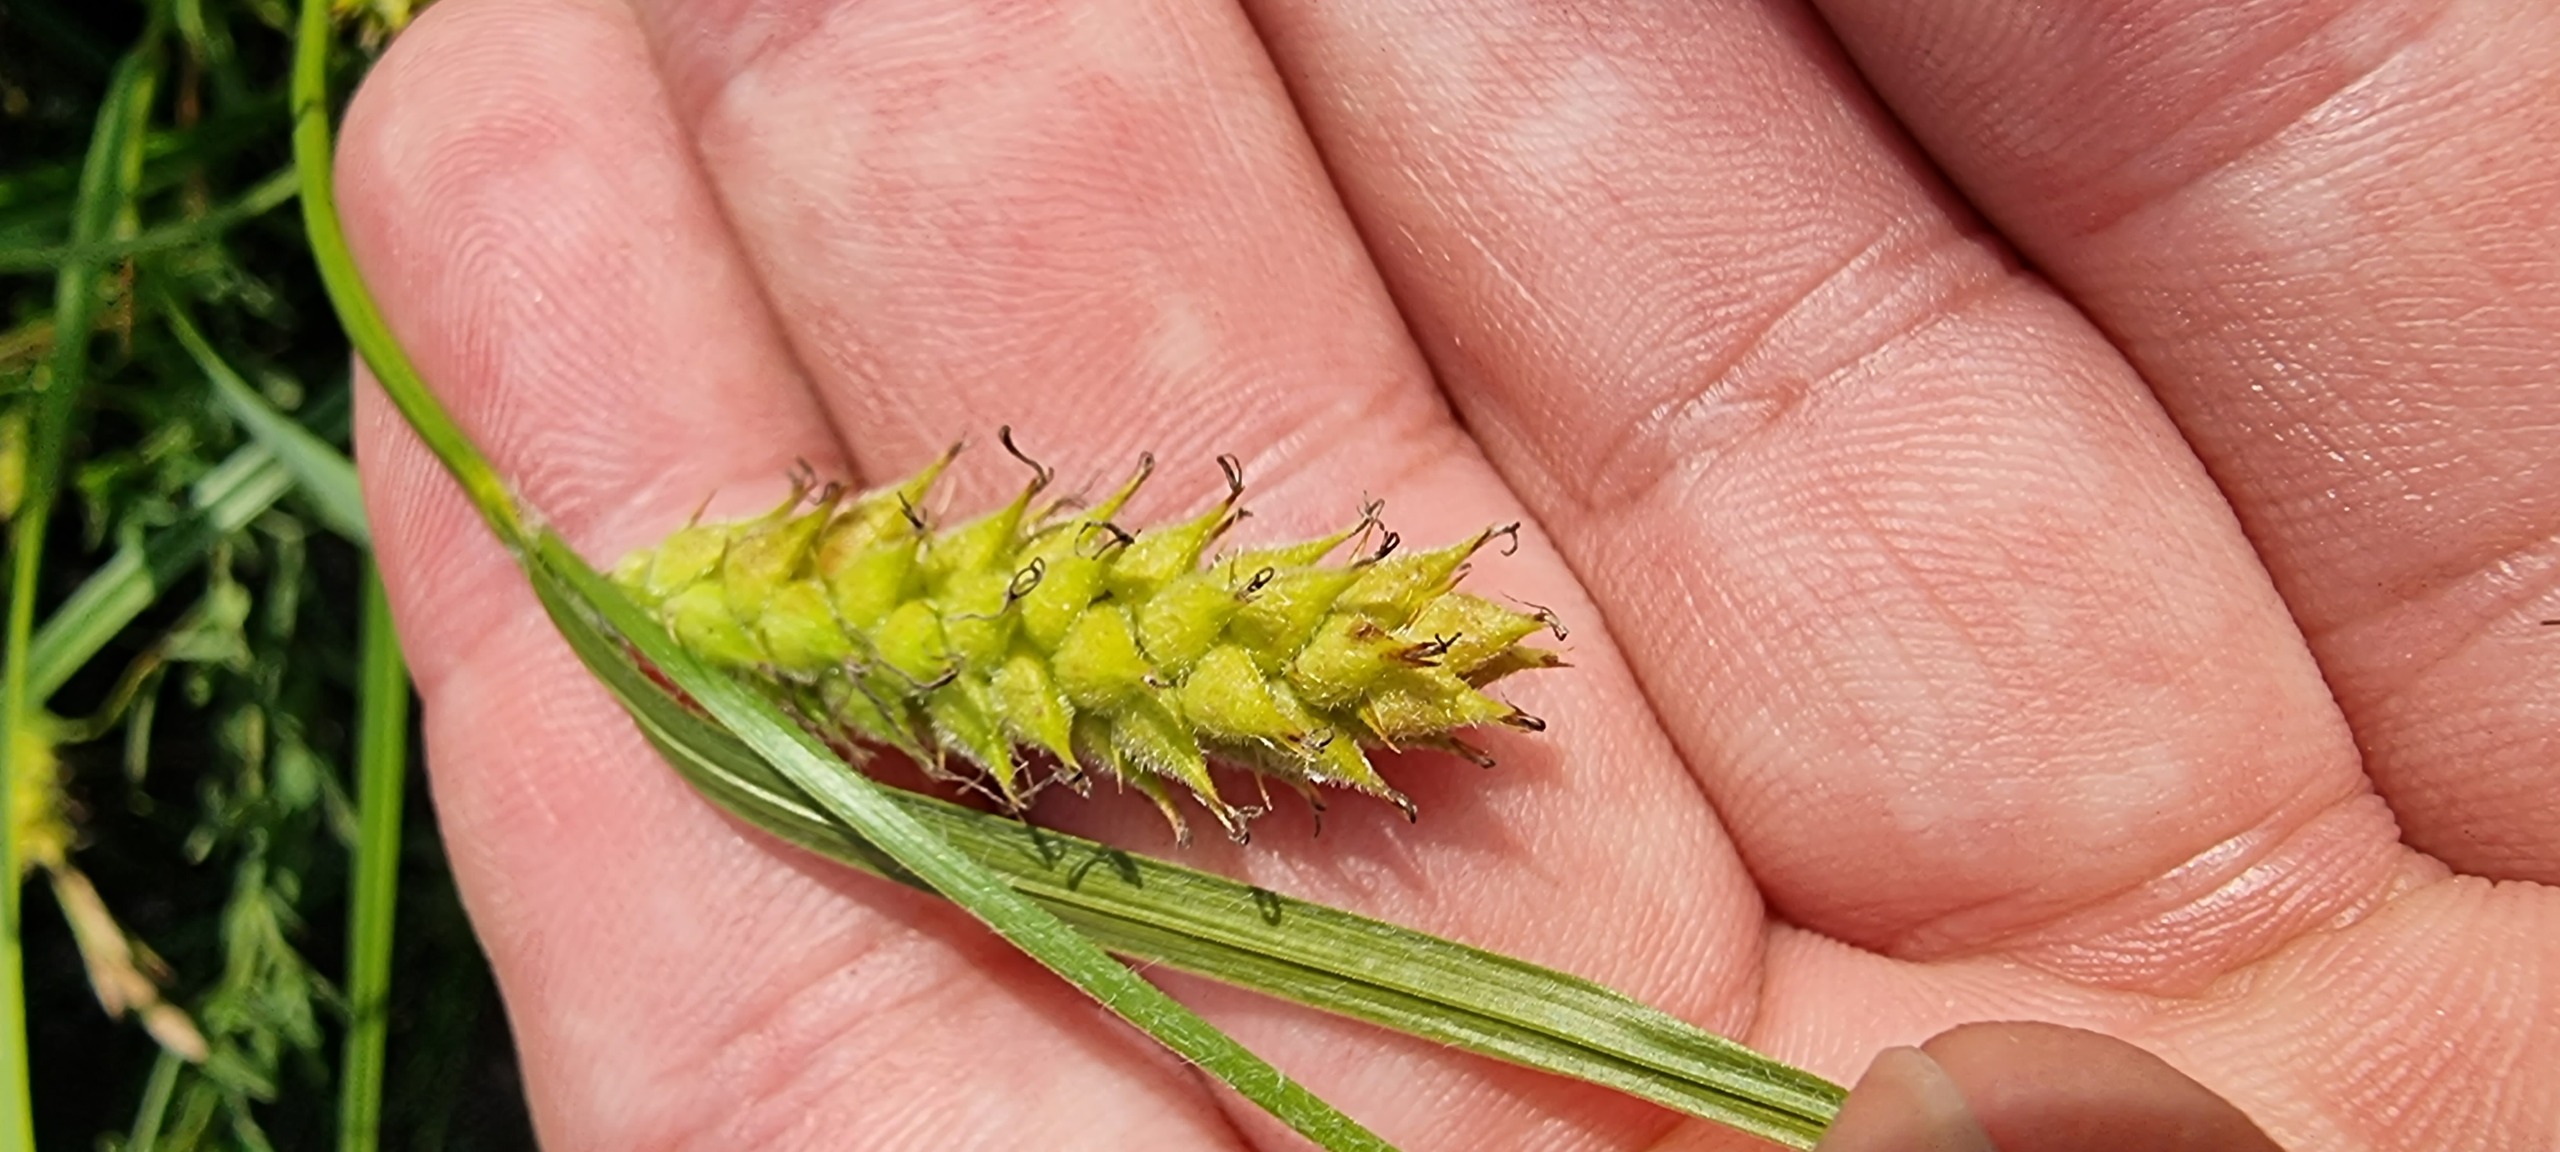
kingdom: Plantae
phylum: Tracheophyta
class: Liliopsida
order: Poales
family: Cyperaceae
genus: Carex
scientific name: Carex hirta
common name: Håret star
